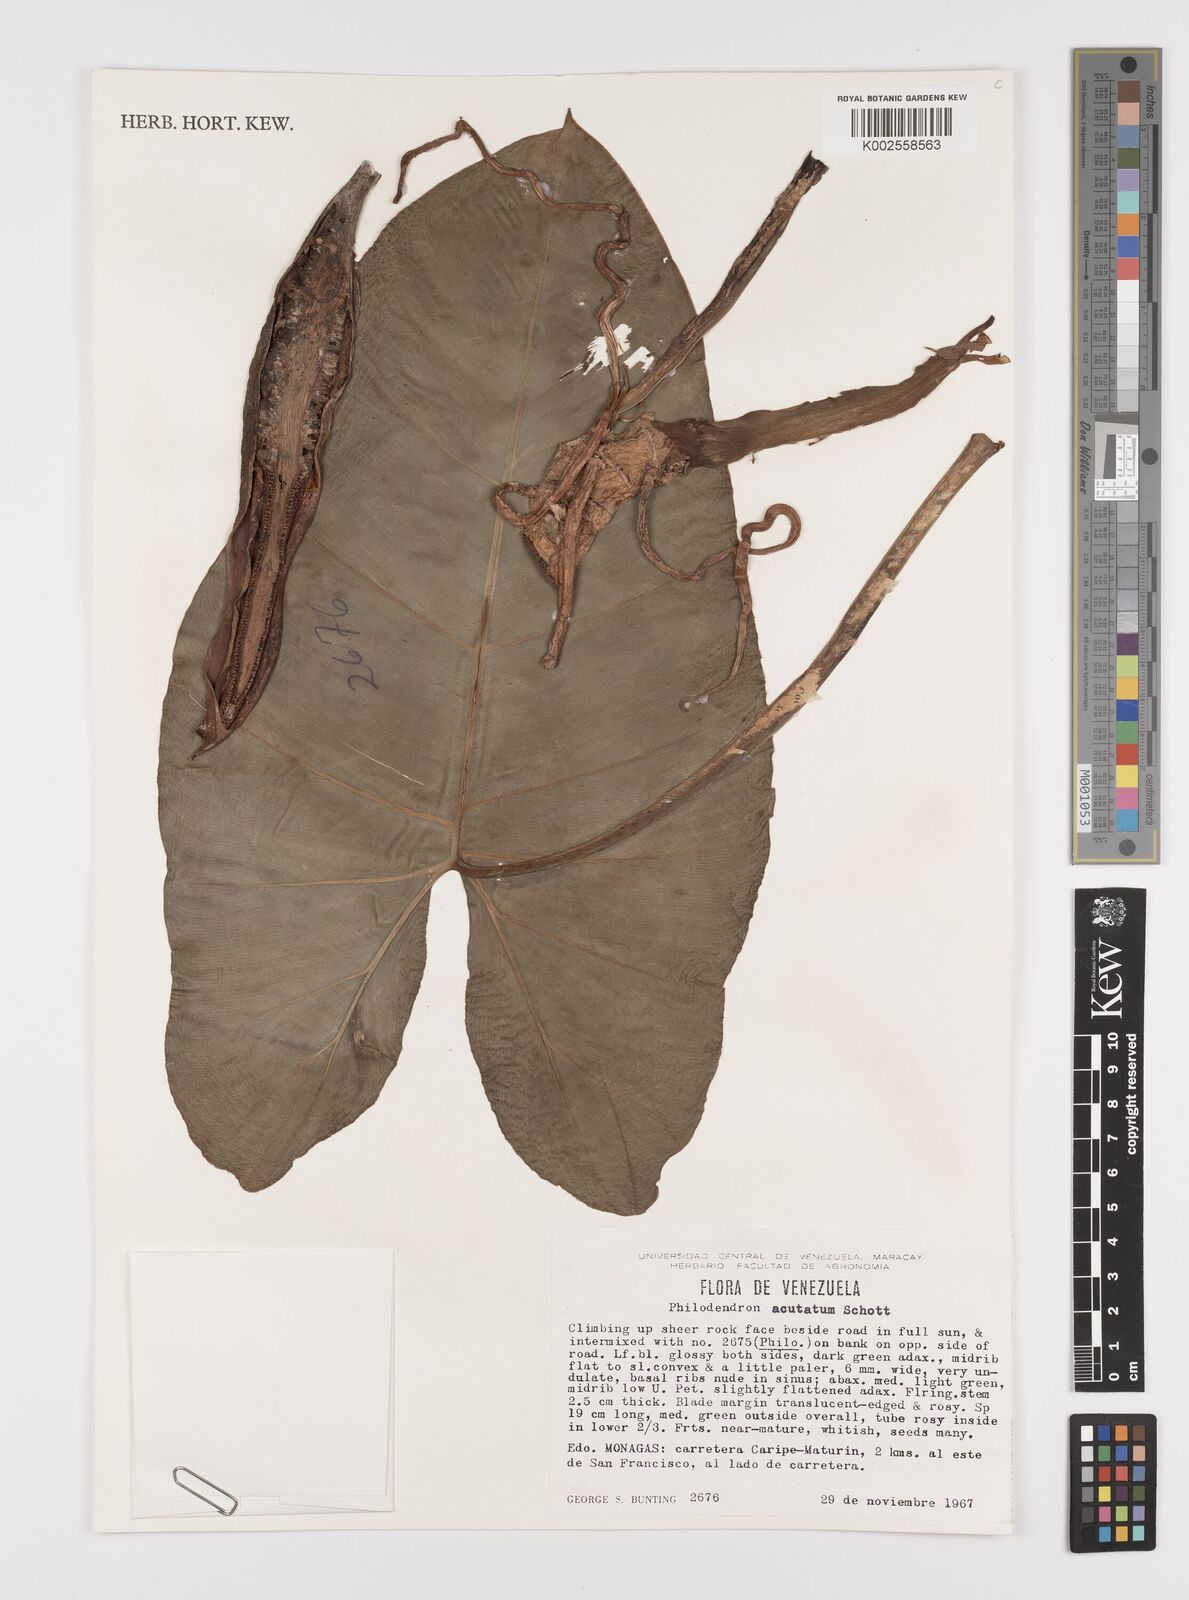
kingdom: Plantae
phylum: Tracheophyta
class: Liliopsida
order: Alismatales
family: Araceae
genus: Philodendron
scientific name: Philodendron quinquenervium
